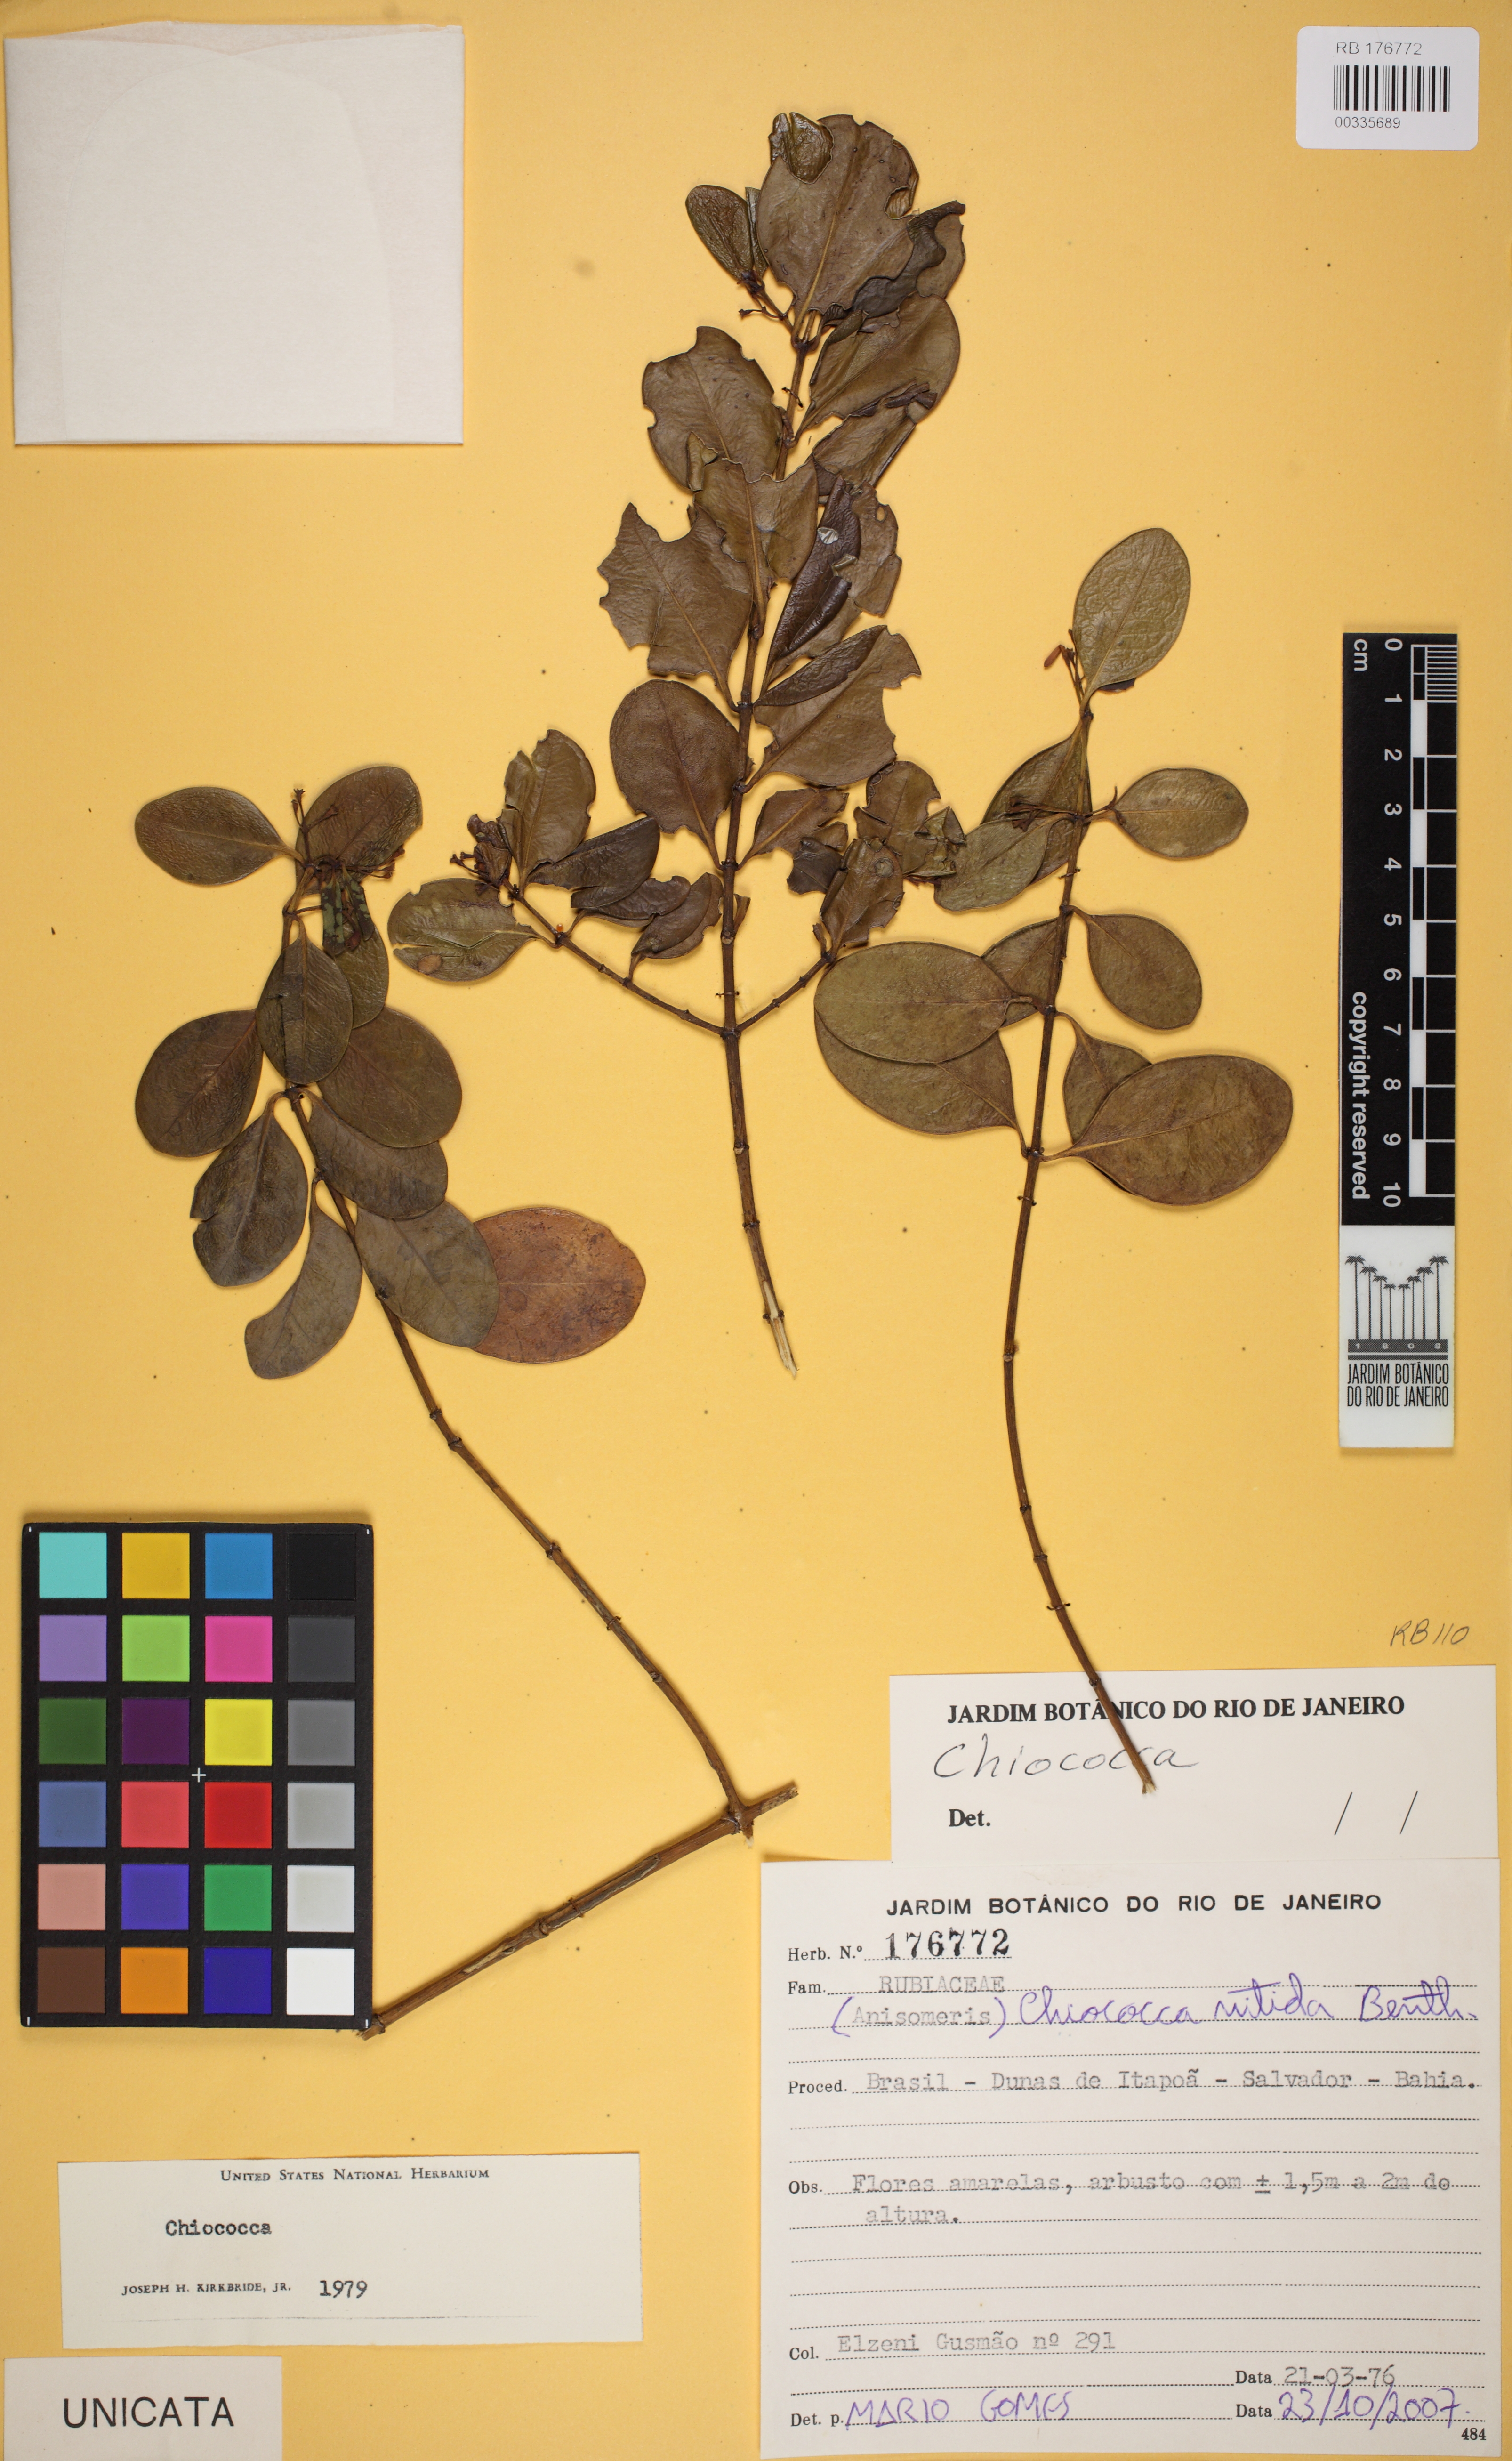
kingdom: Plantae
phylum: Tracheophyta
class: Magnoliopsida
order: Gentianales
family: Rubiaceae
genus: Salzmannia
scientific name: Salzmannia plowmanii
